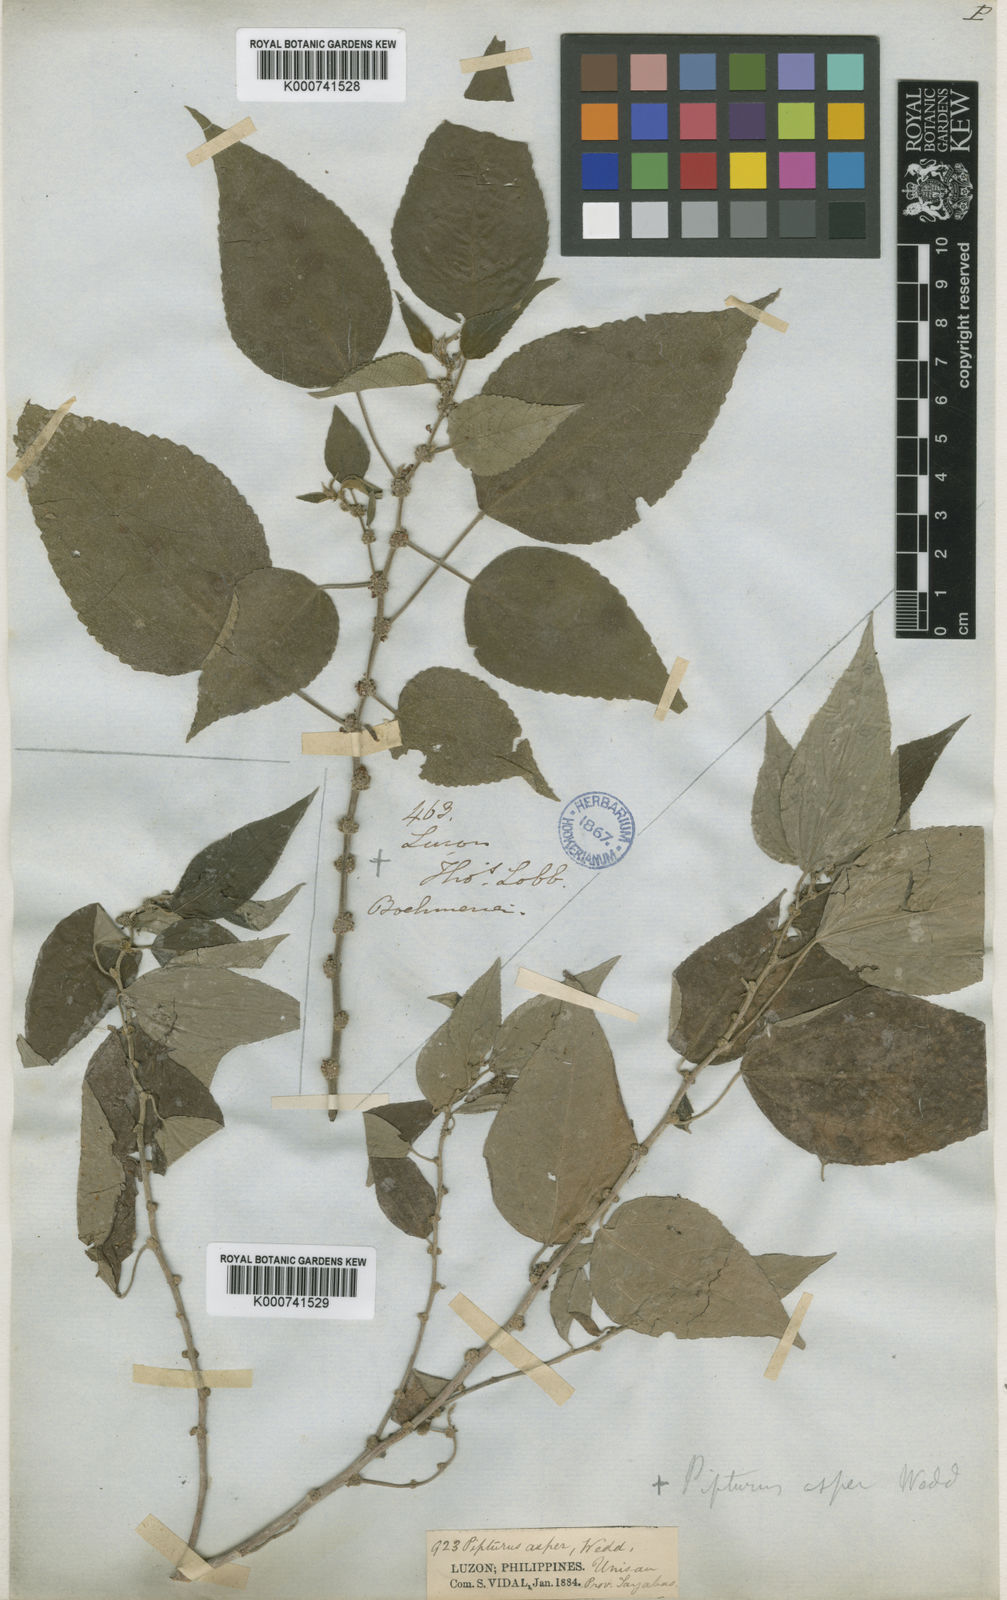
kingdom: Plantae
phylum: Tracheophyta
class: Magnoliopsida
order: Rosales
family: Urticaceae
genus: Pipturus
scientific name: Pipturus arborescens
